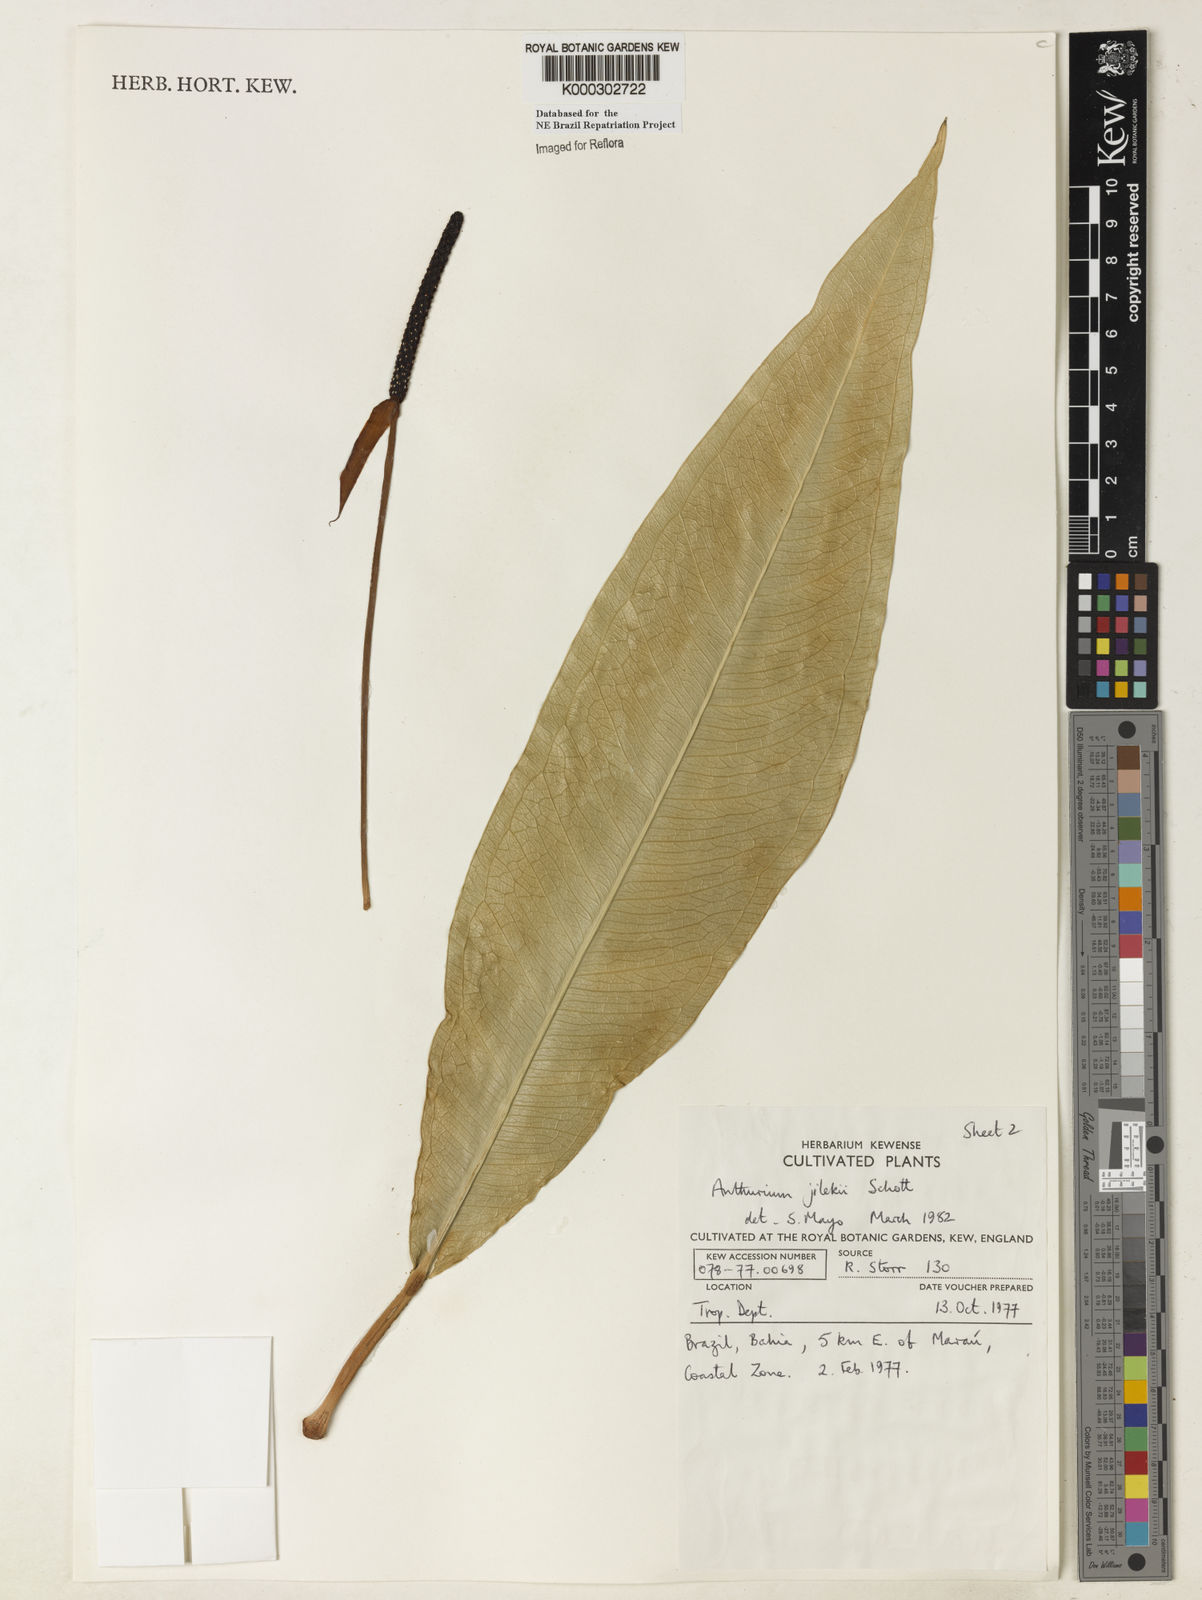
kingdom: Plantae
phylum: Tracheophyta
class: Liliopsida
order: Alismatales
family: Araceae
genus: Anthurium
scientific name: Anthurium jilekii
